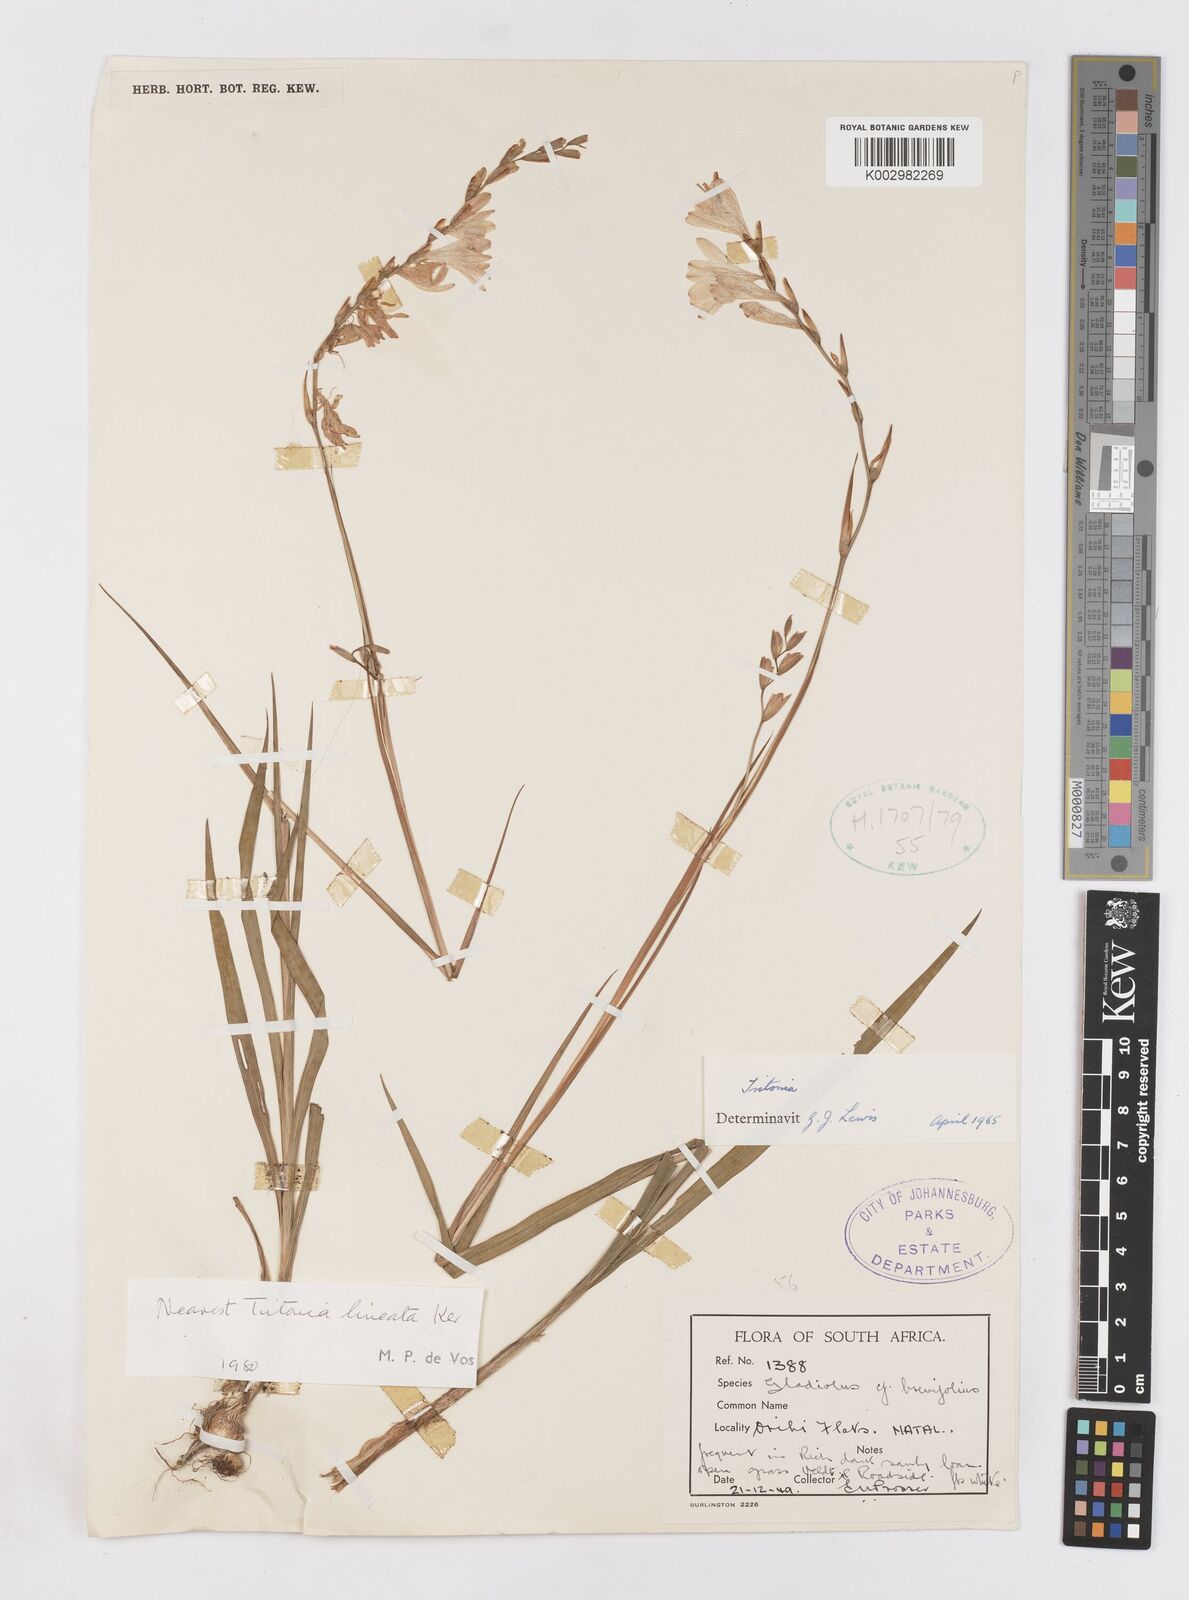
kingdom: Plantae
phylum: Tracheophyta
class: Liliopsida
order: Asparagales
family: Iridaceae
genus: Tritonia
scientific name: Tritonia gladiolaris
